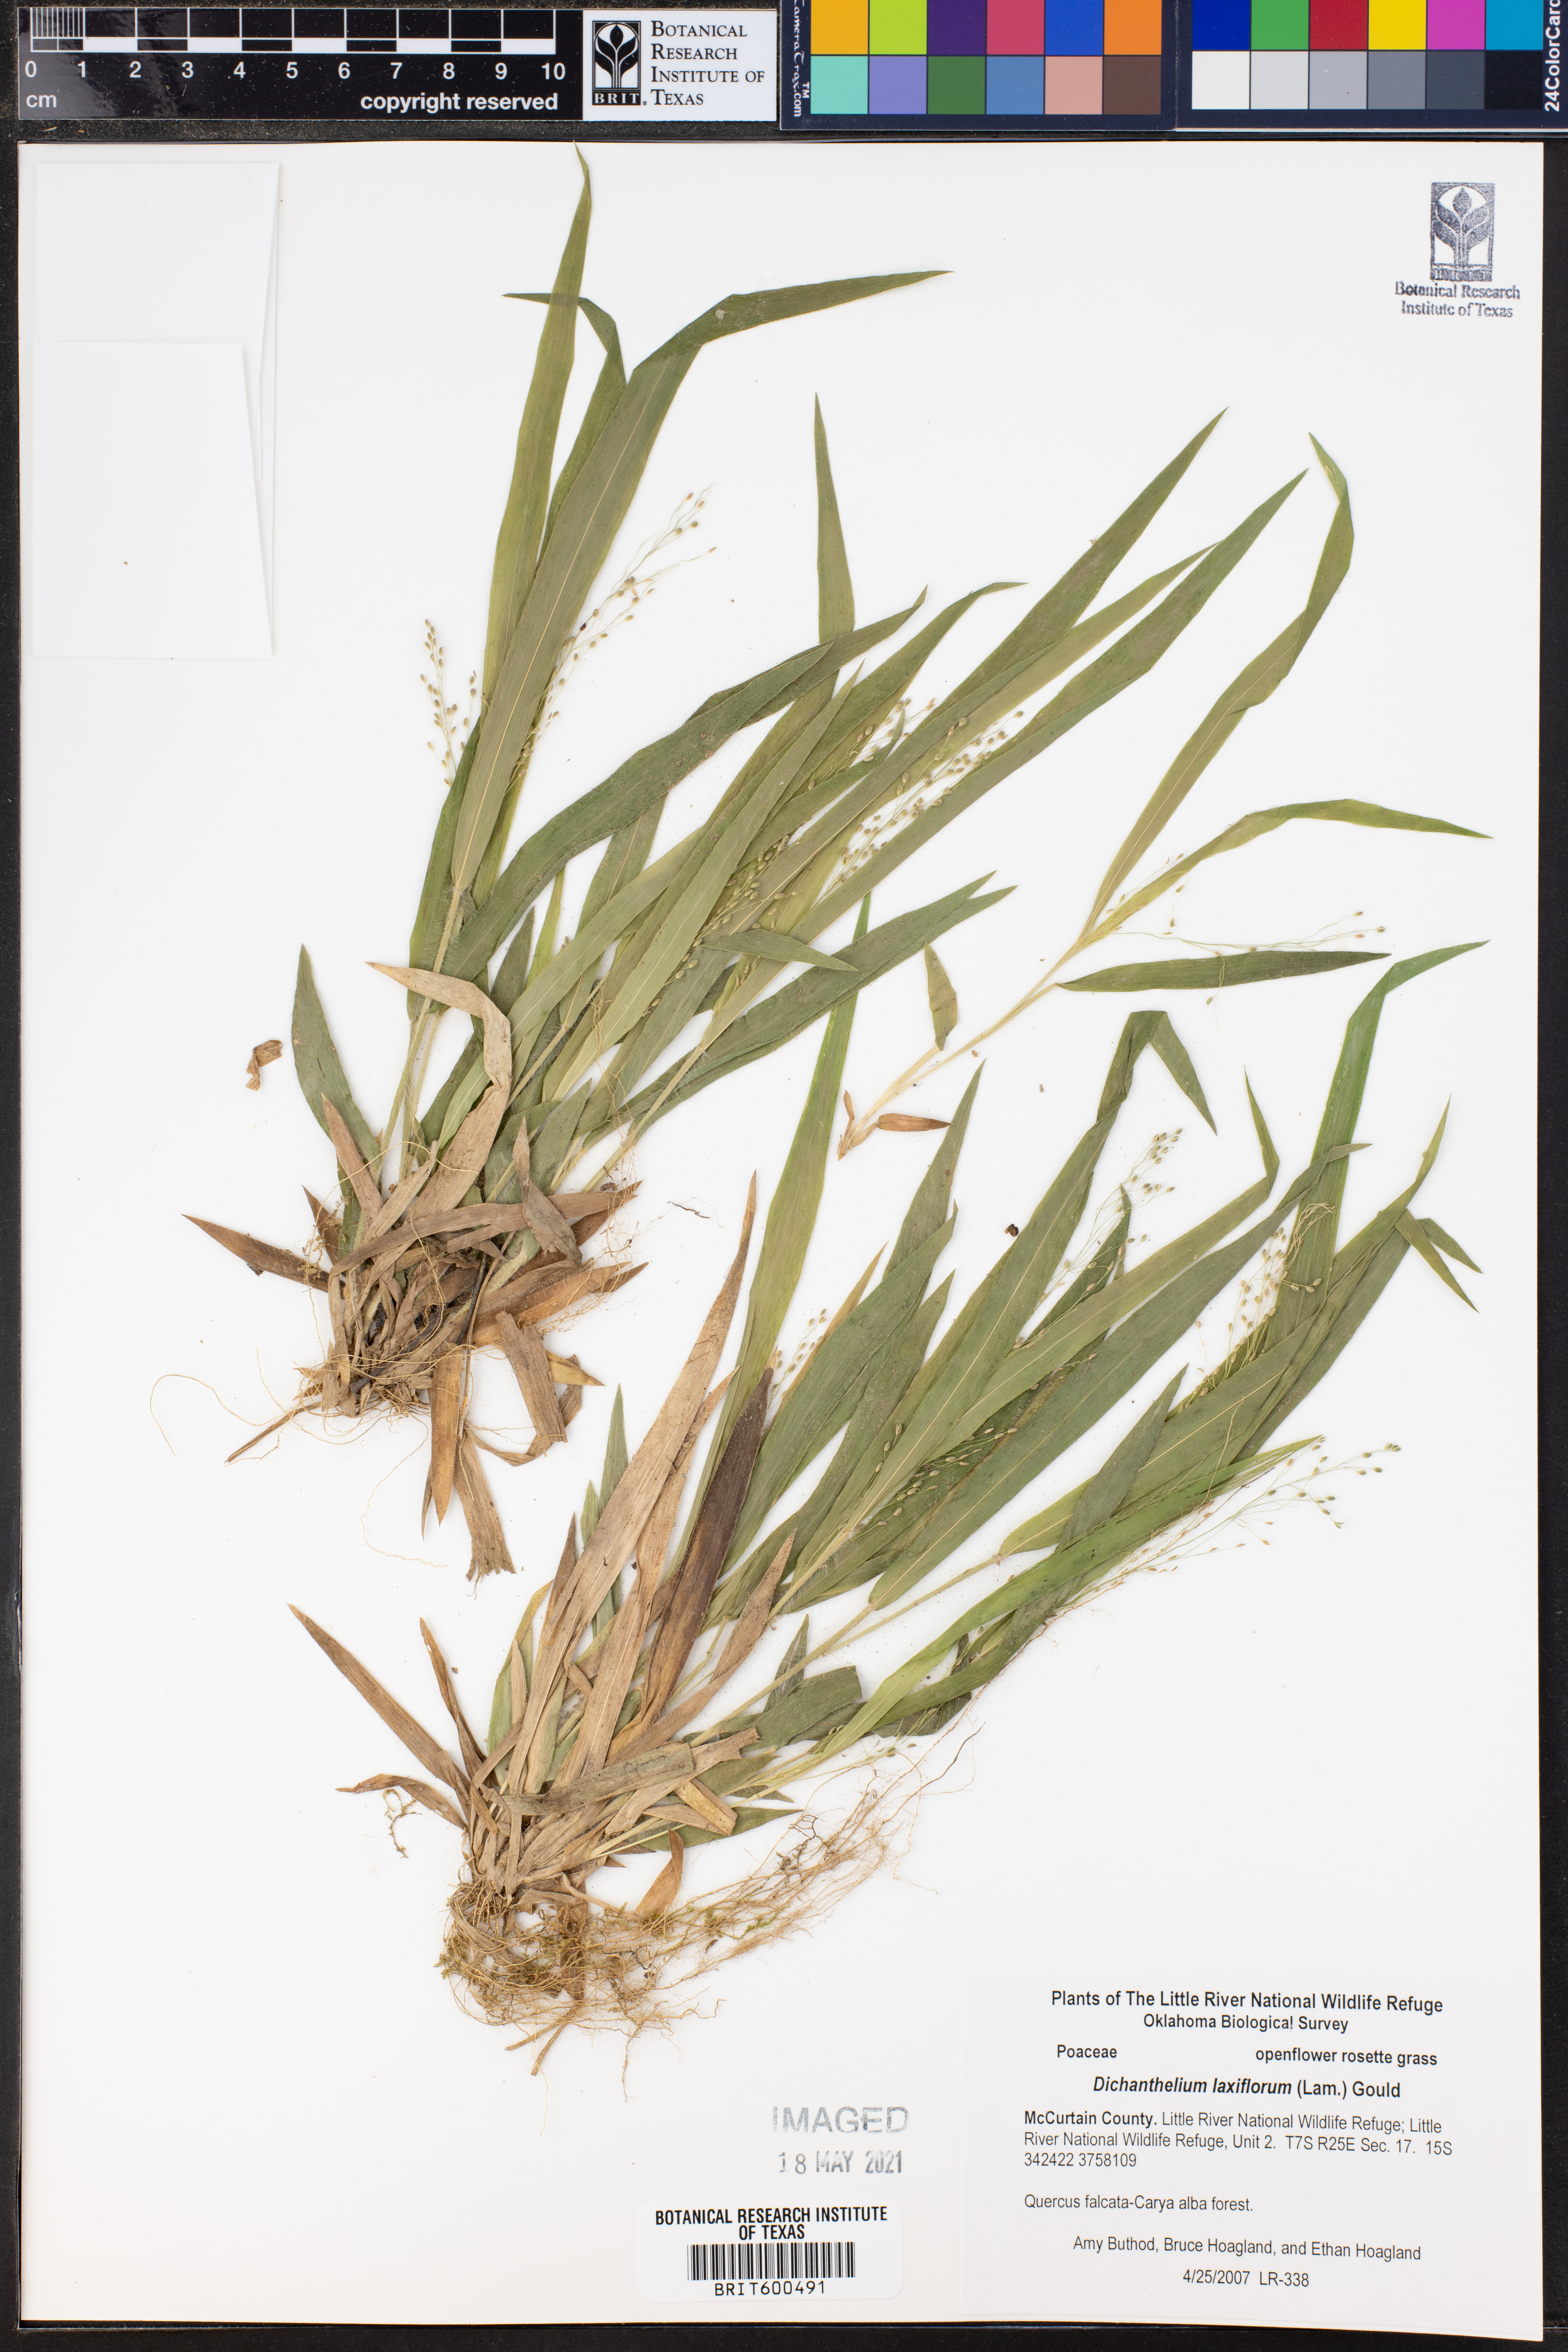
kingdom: Plantae
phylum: Tracheophyta
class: Liliopsida
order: Poales
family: Poaceae
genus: Dichanthelium
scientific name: Dichanthelium laxiflorum
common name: Soft-tuft panic grass
